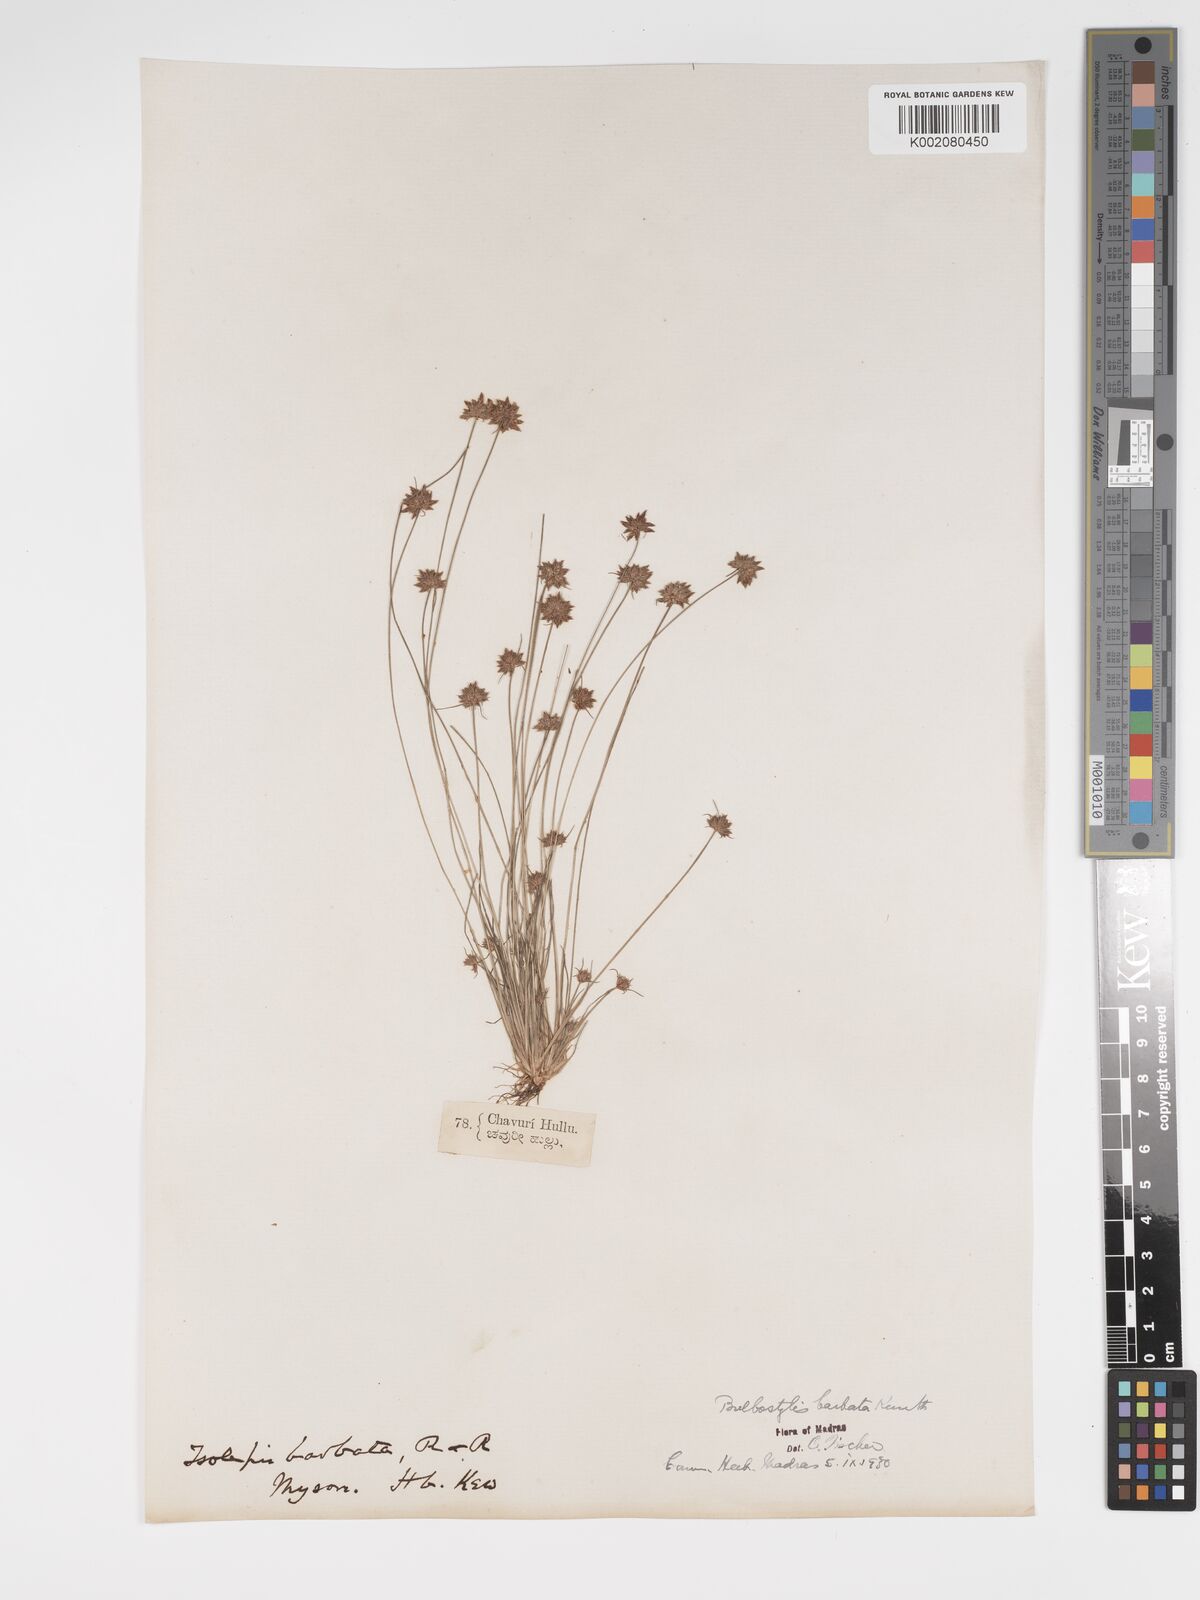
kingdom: Plantae
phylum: Tracheophyta
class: Liliopsida
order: Poales
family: Cyperaceae
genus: Bulbostylis
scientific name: Bulbostylis barbata
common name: Watergrass
